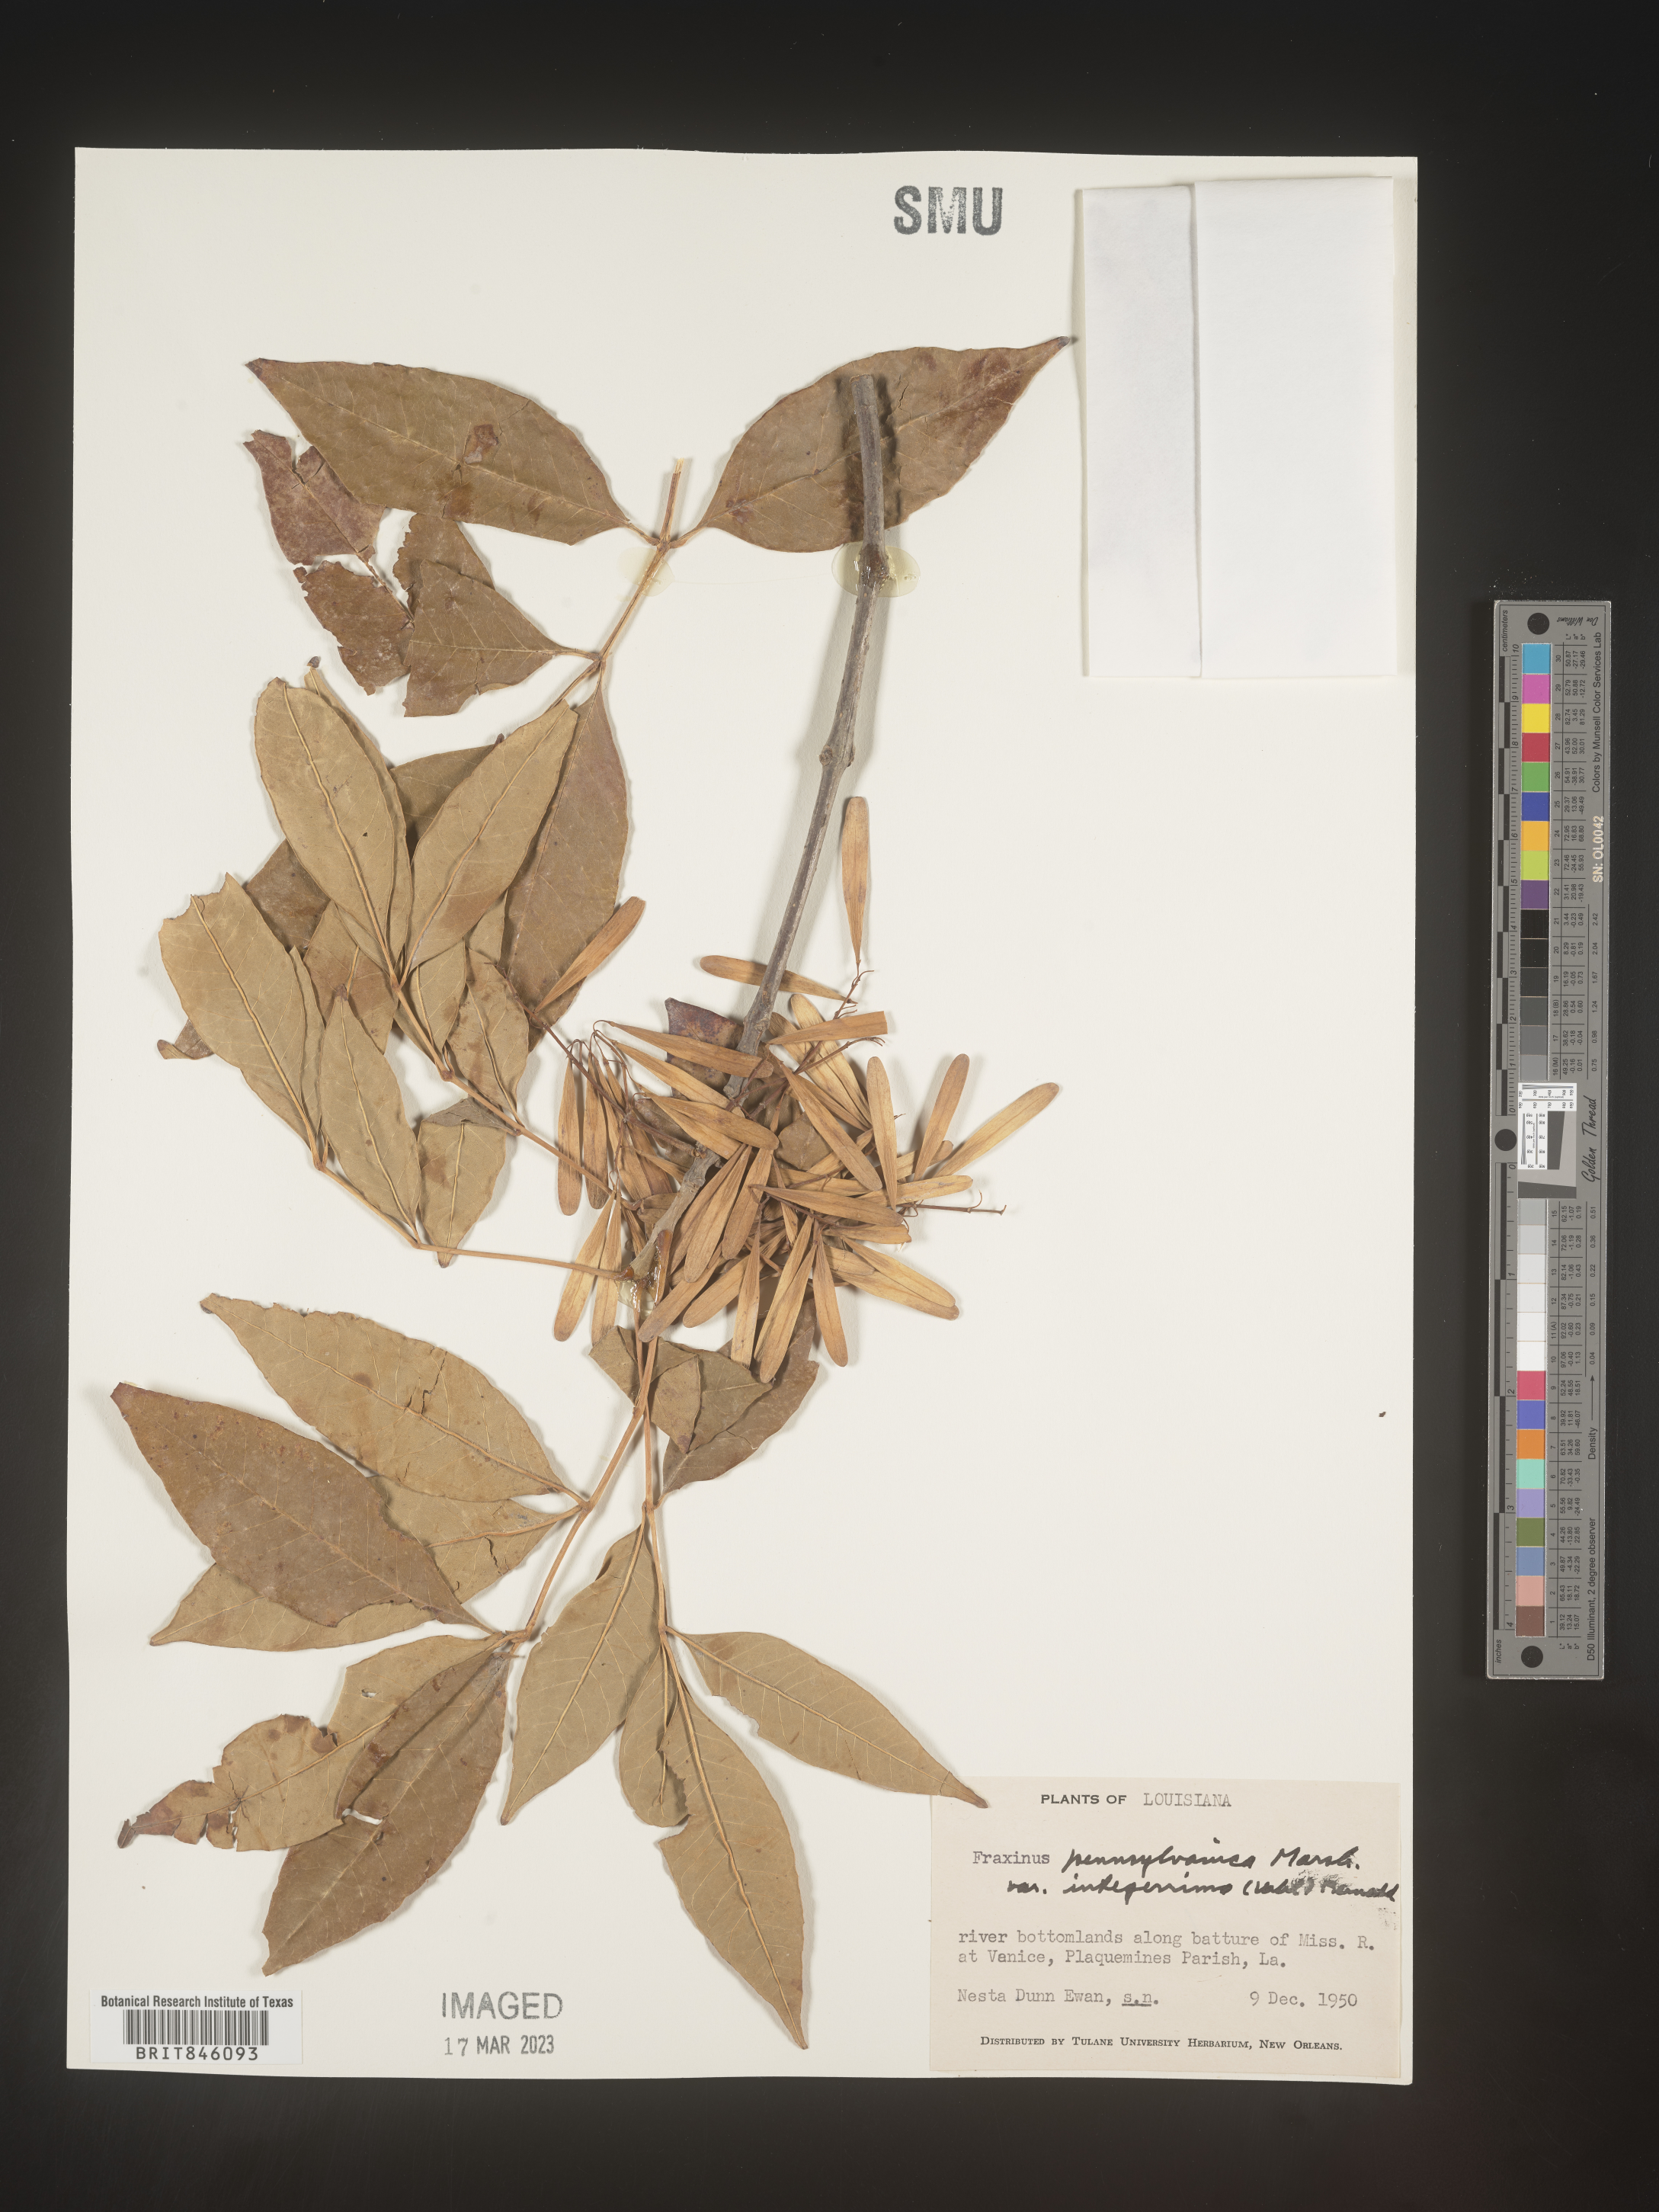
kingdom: Plantae
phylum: Tracheophyta
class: Magnoliopsida
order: Lamiales
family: Oleaceae
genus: Fraxinus
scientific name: Fraxinus pennsylvanica
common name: Green ash
